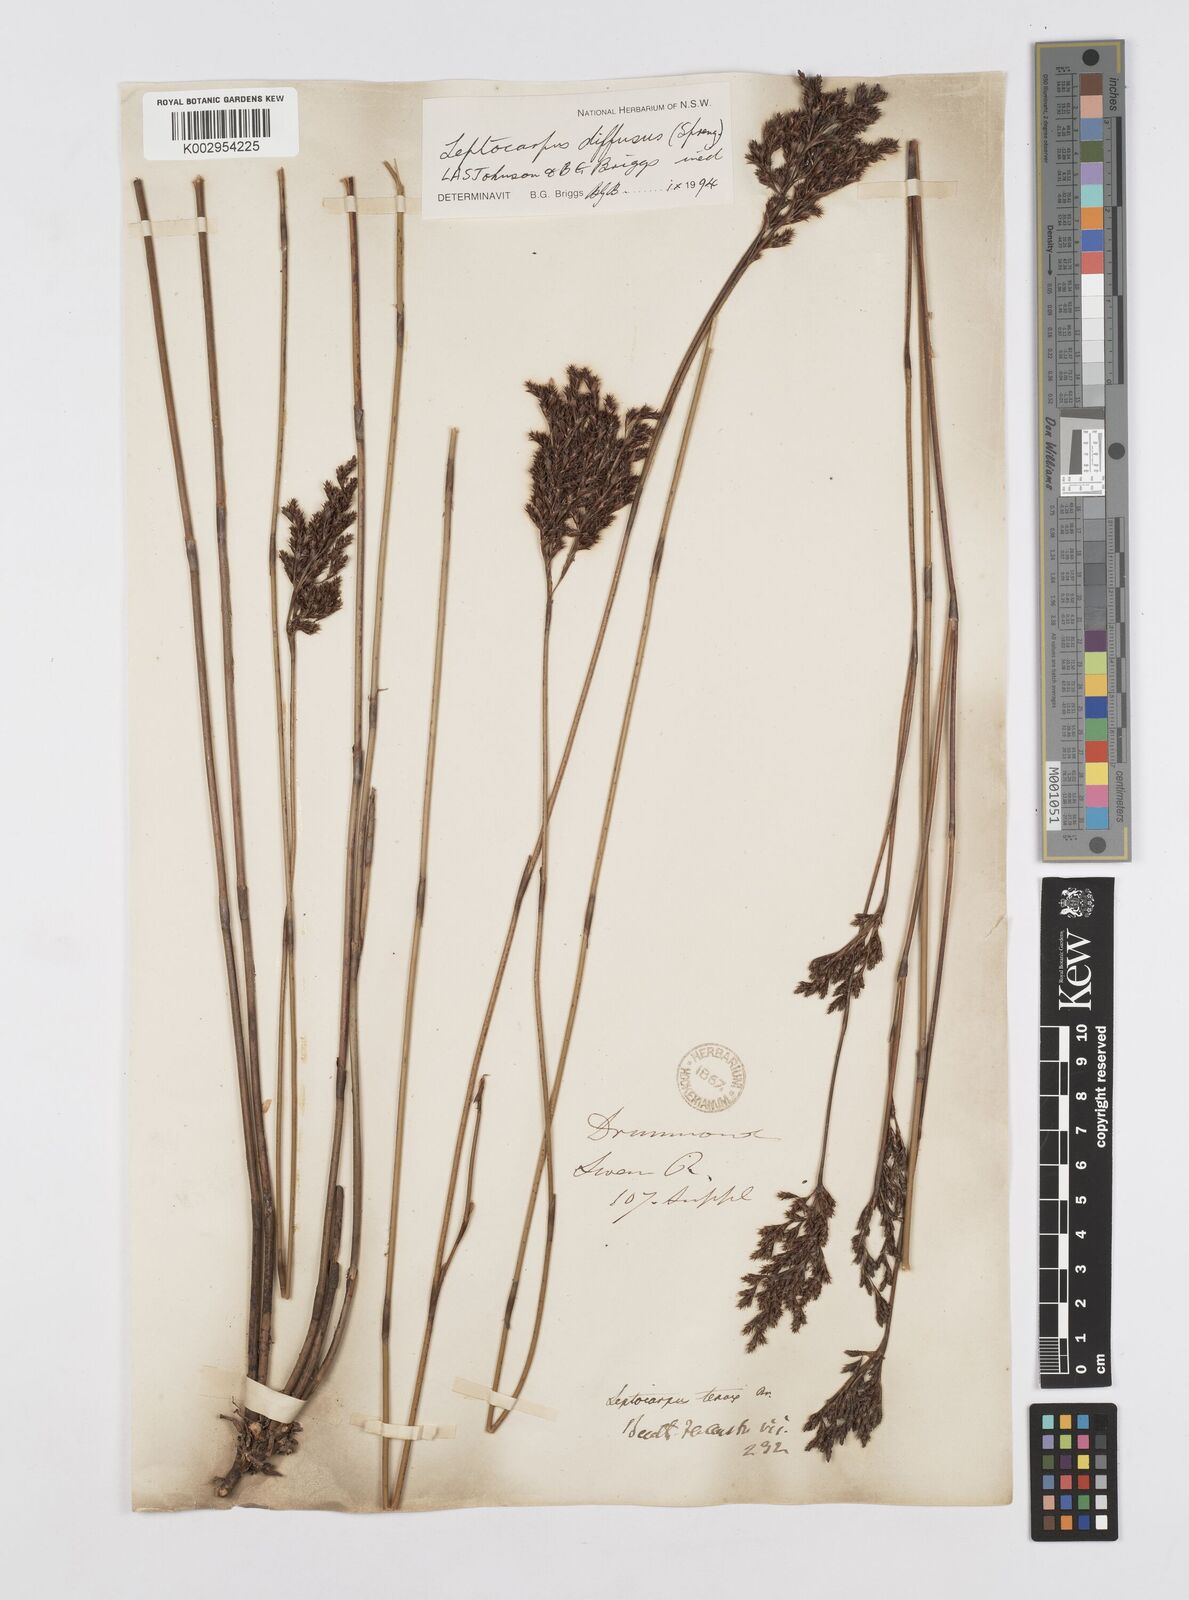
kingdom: Plantae
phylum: Tracheophyta
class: Liliopsida
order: Poales
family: Restionaceae
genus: Leptocarpus
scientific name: Leptocarpus laxus
